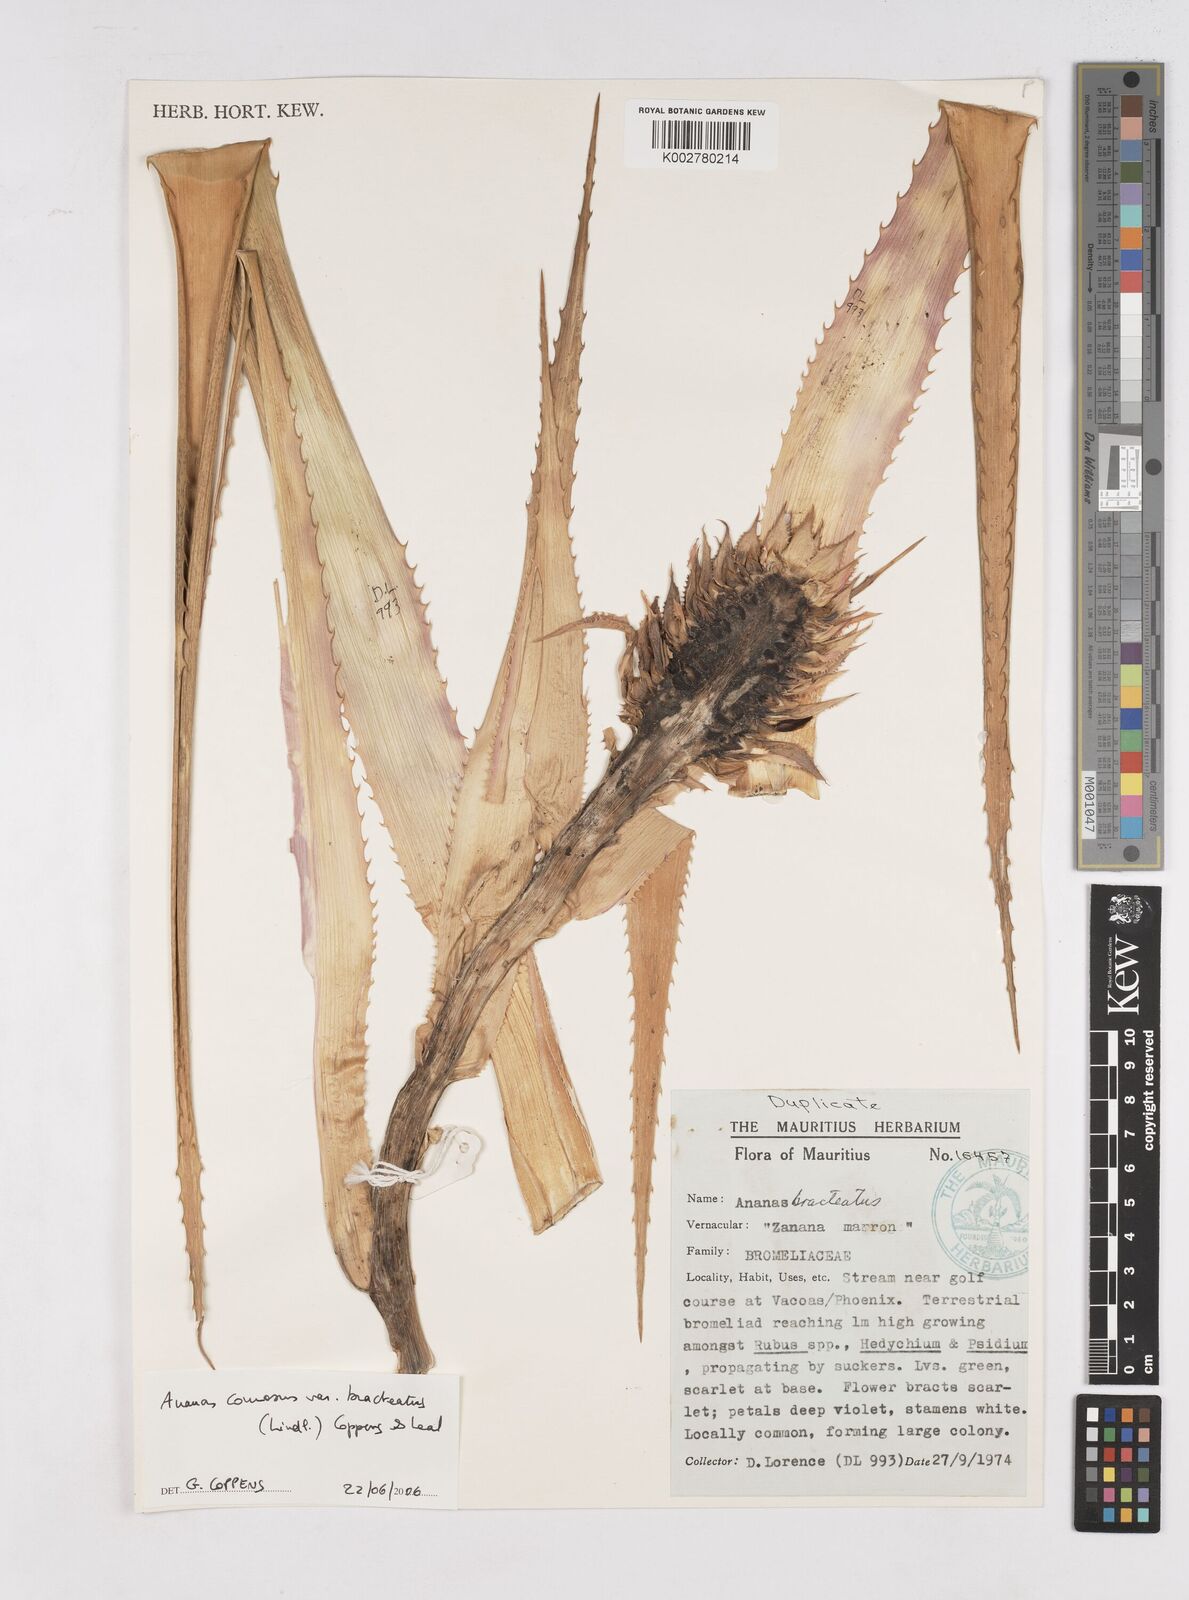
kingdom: Plantae
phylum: Tracheophyta
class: Liliopsida
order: Poales
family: Bromeliaceae
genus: Ananas
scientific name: Ananas comosus
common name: Pineapple
